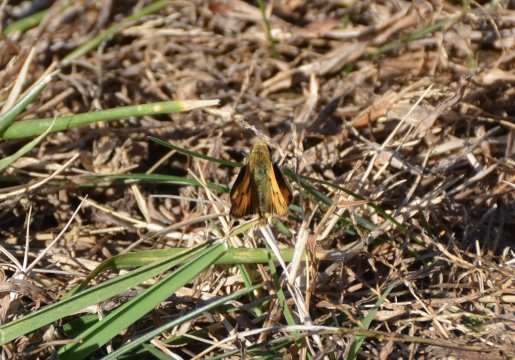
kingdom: Animalia
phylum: Arthropoda
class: Insecta
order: Lepidoptera
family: Hesperiidae
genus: Hylephila
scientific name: Hylephila phyleus
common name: Fiery Skipper
